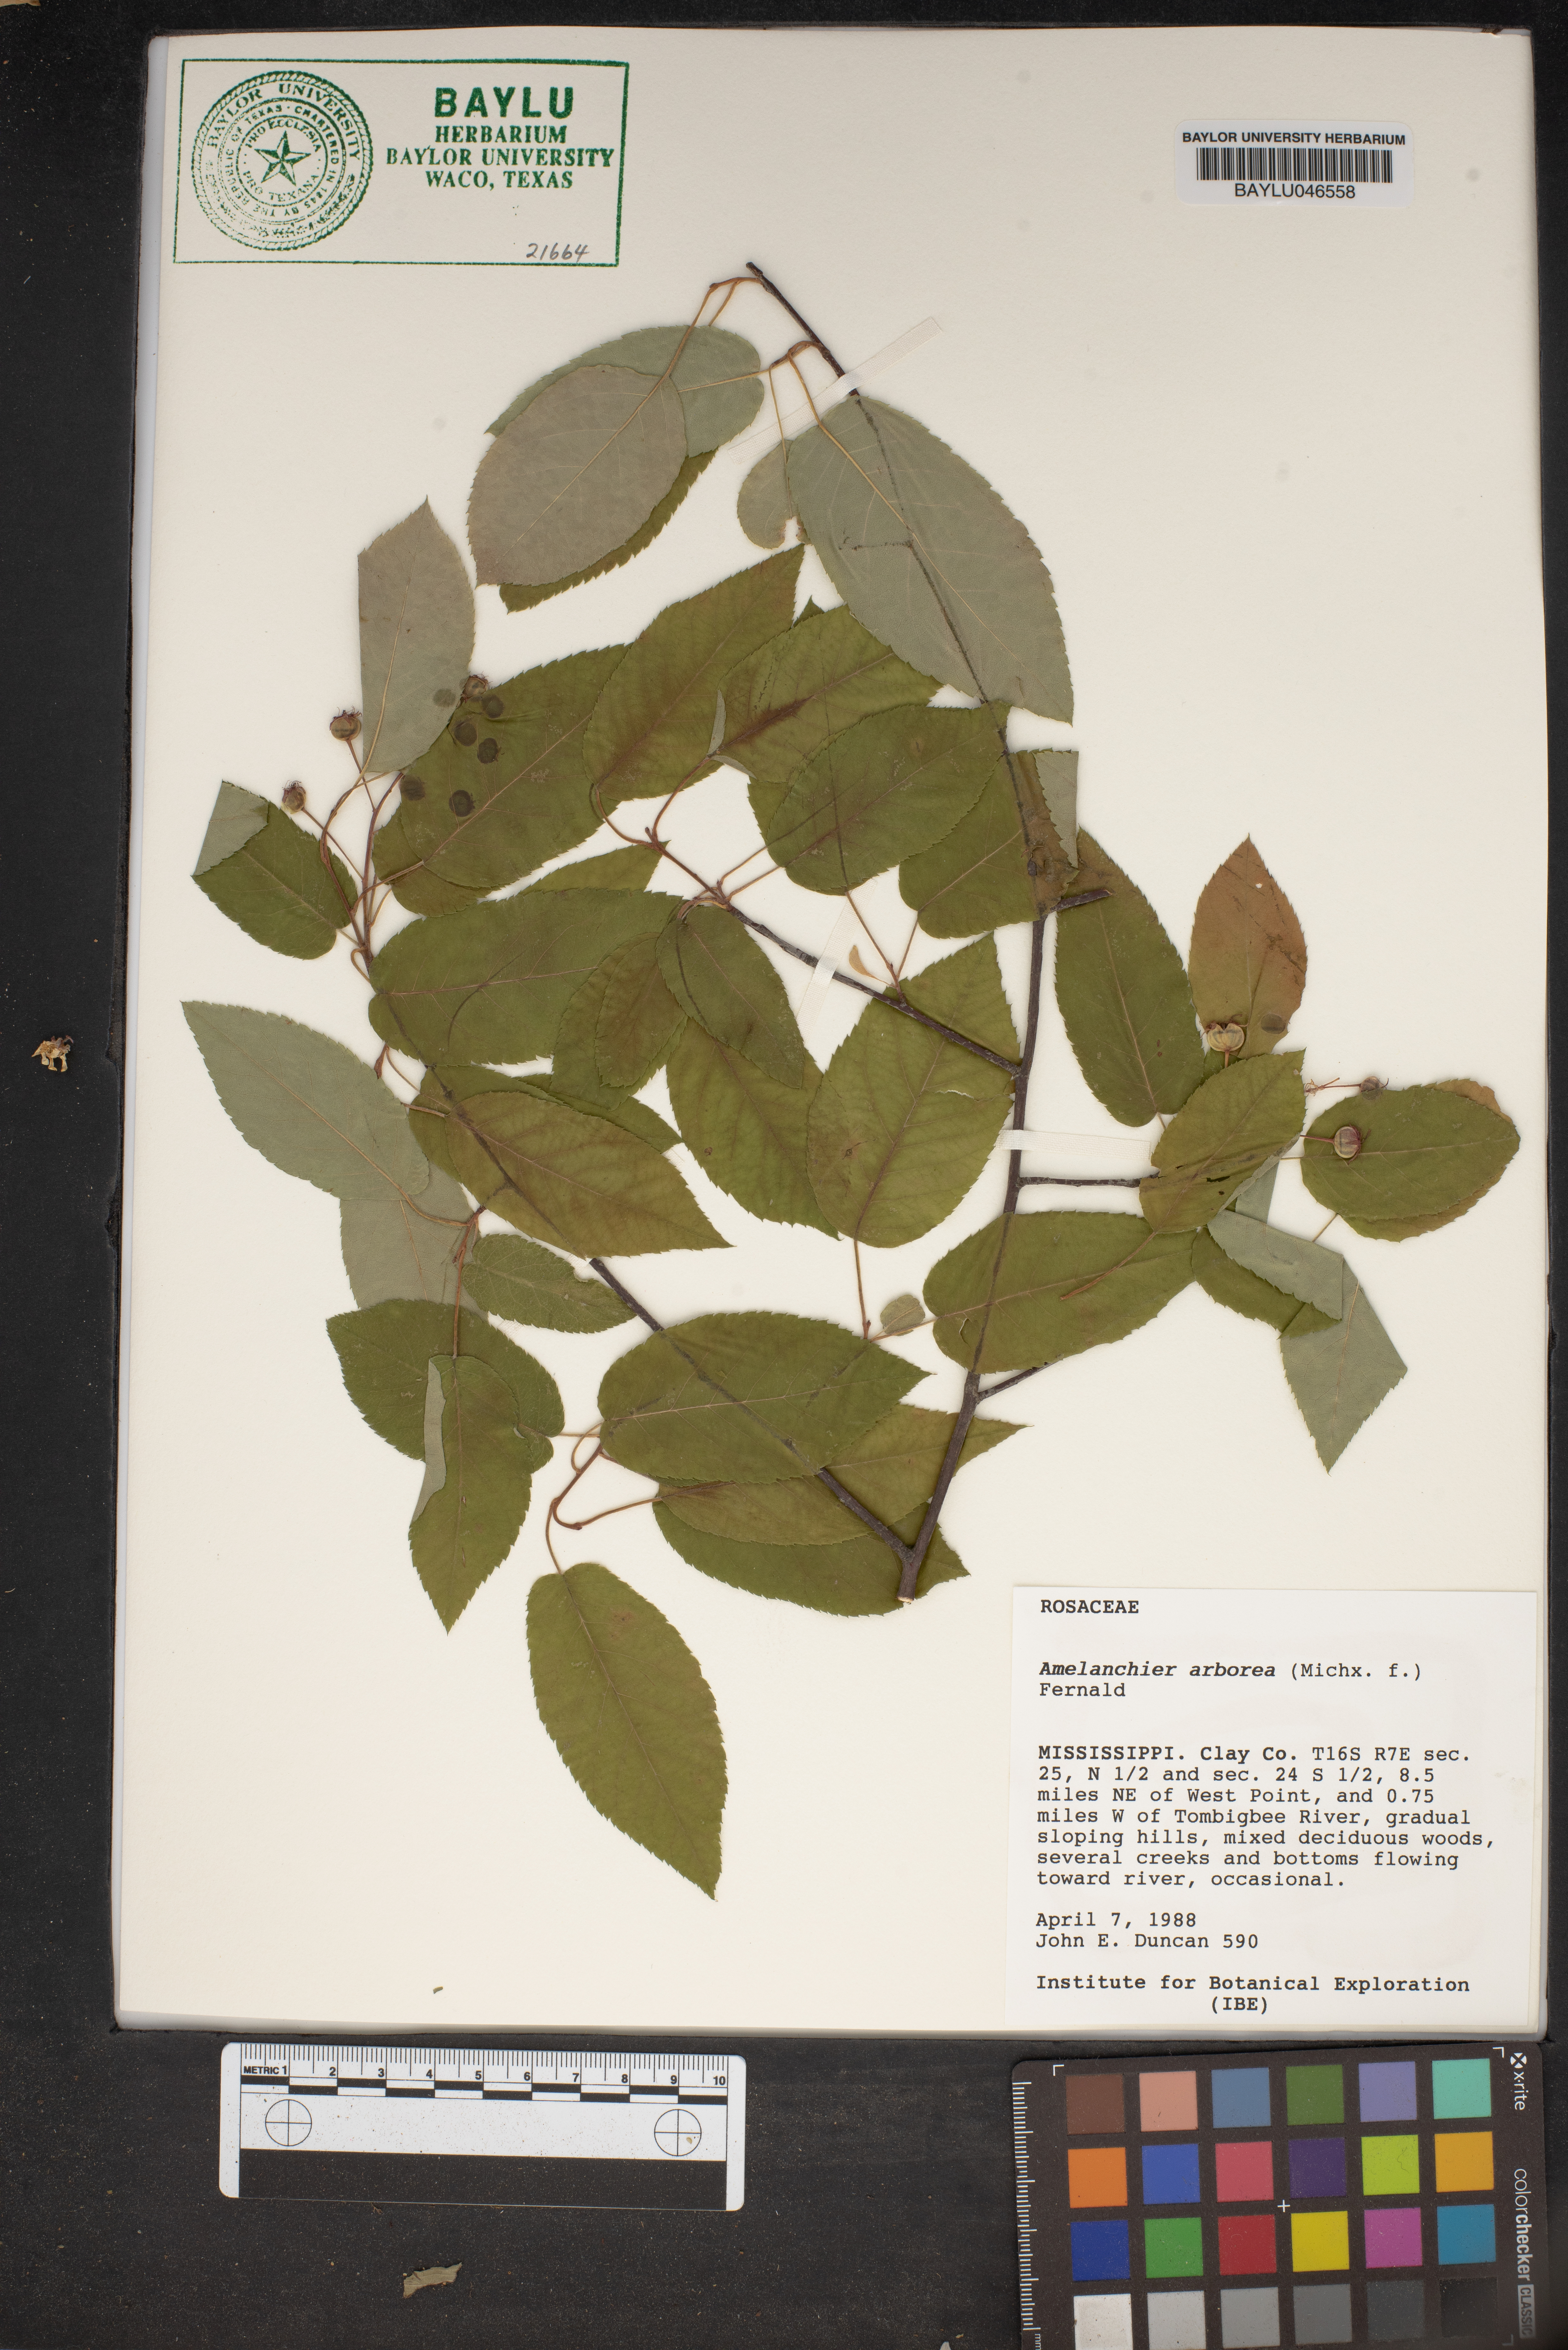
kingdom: Plantae
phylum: Tracheophyta
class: Magnoliopsida
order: Rosales
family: Rosaceae
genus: Amelanchier
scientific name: Amelanchier arborea
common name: Downy serviceberry
